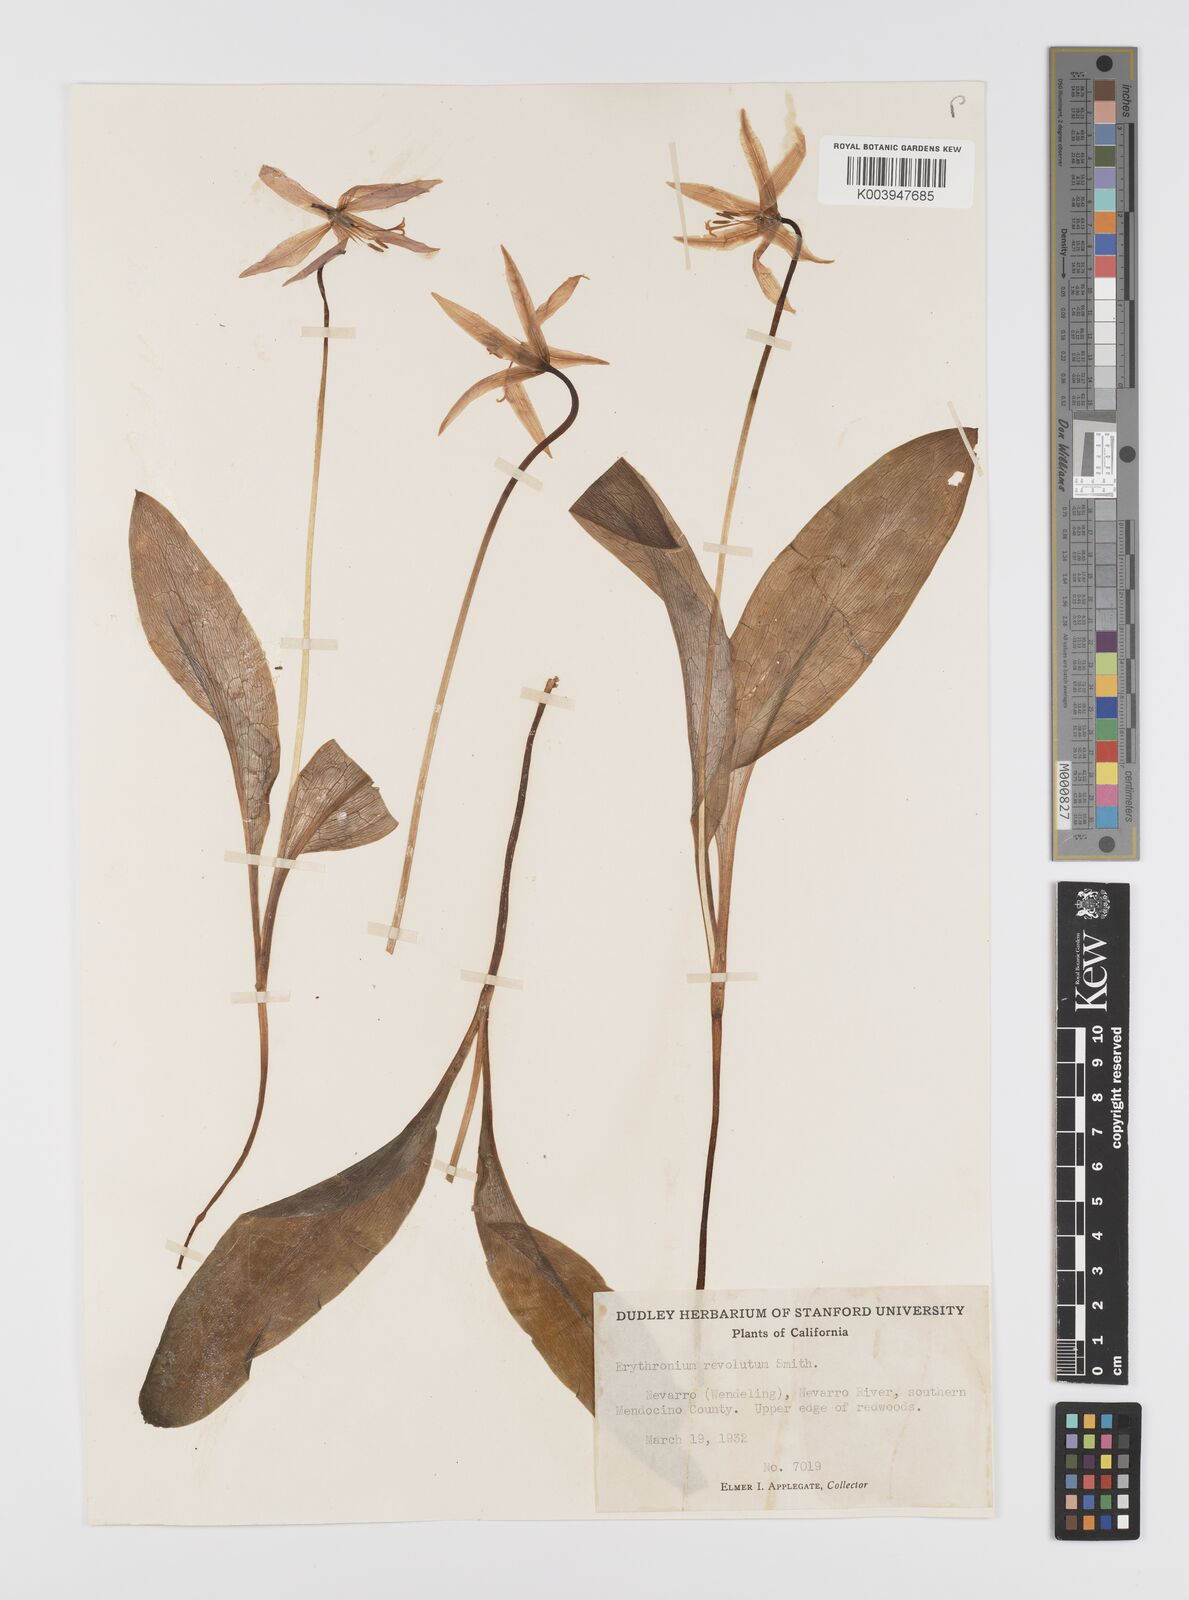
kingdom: Plantae
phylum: Tracheophyta
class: Liliopsida
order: Liliales
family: Liliaceae
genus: Erythronium
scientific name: Erythronium purpurascens
